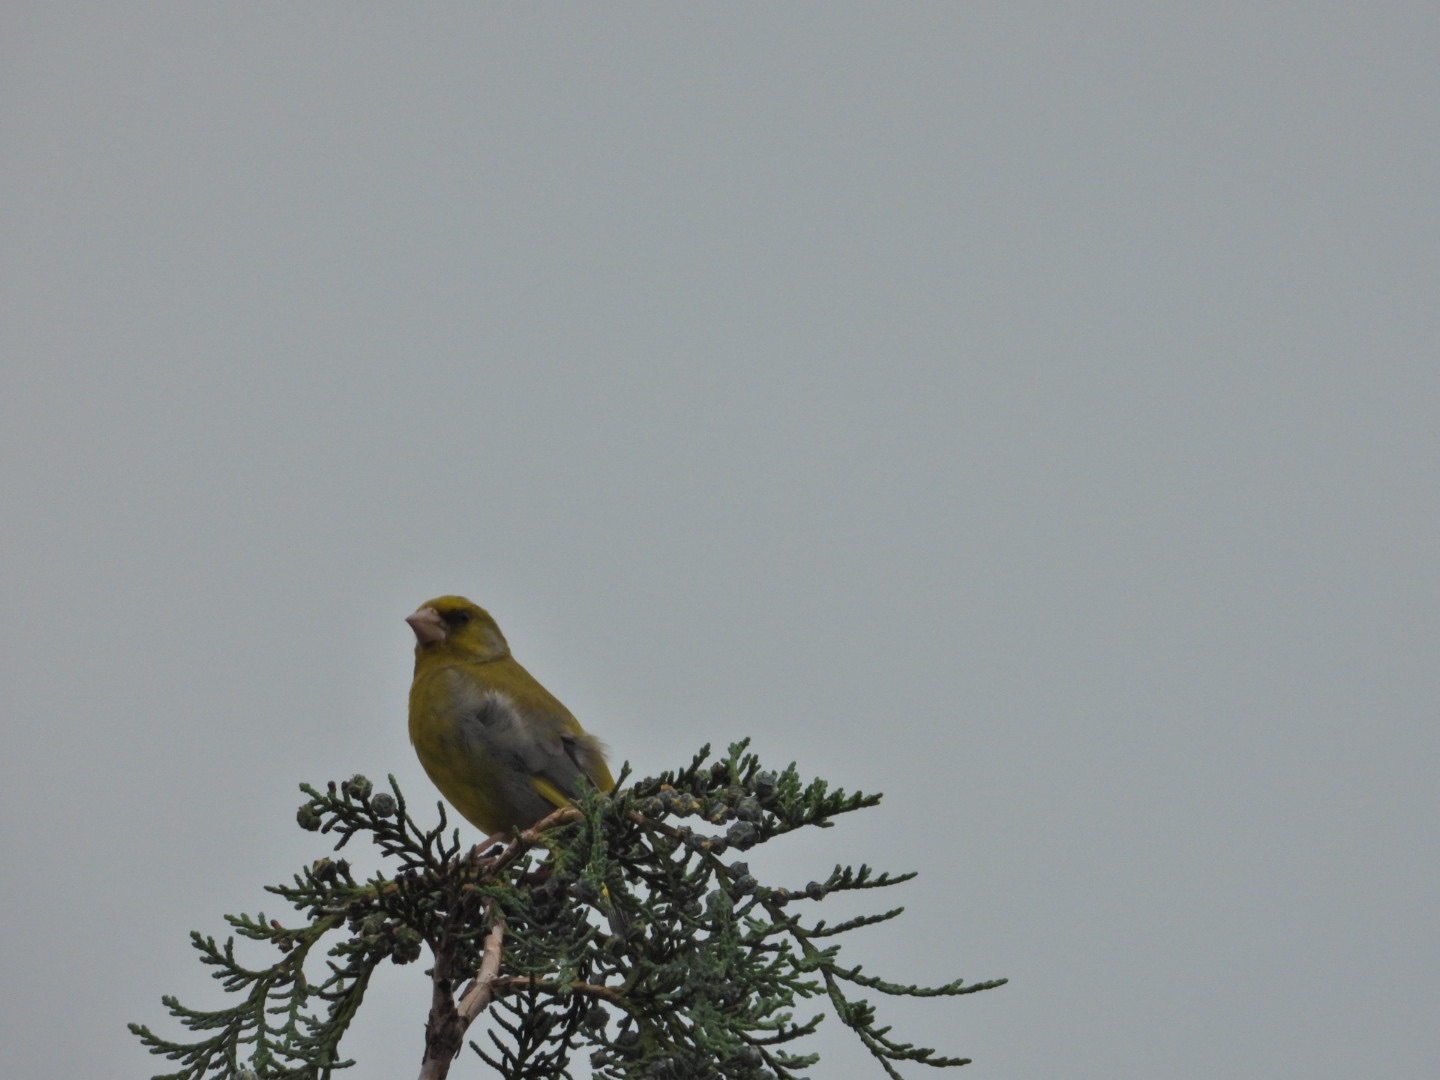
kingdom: Plantae
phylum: Tracheophyta
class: Liliopsida
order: Poales
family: Poaceae
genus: Chloris
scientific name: Chloris chloris
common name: Grønirisk
